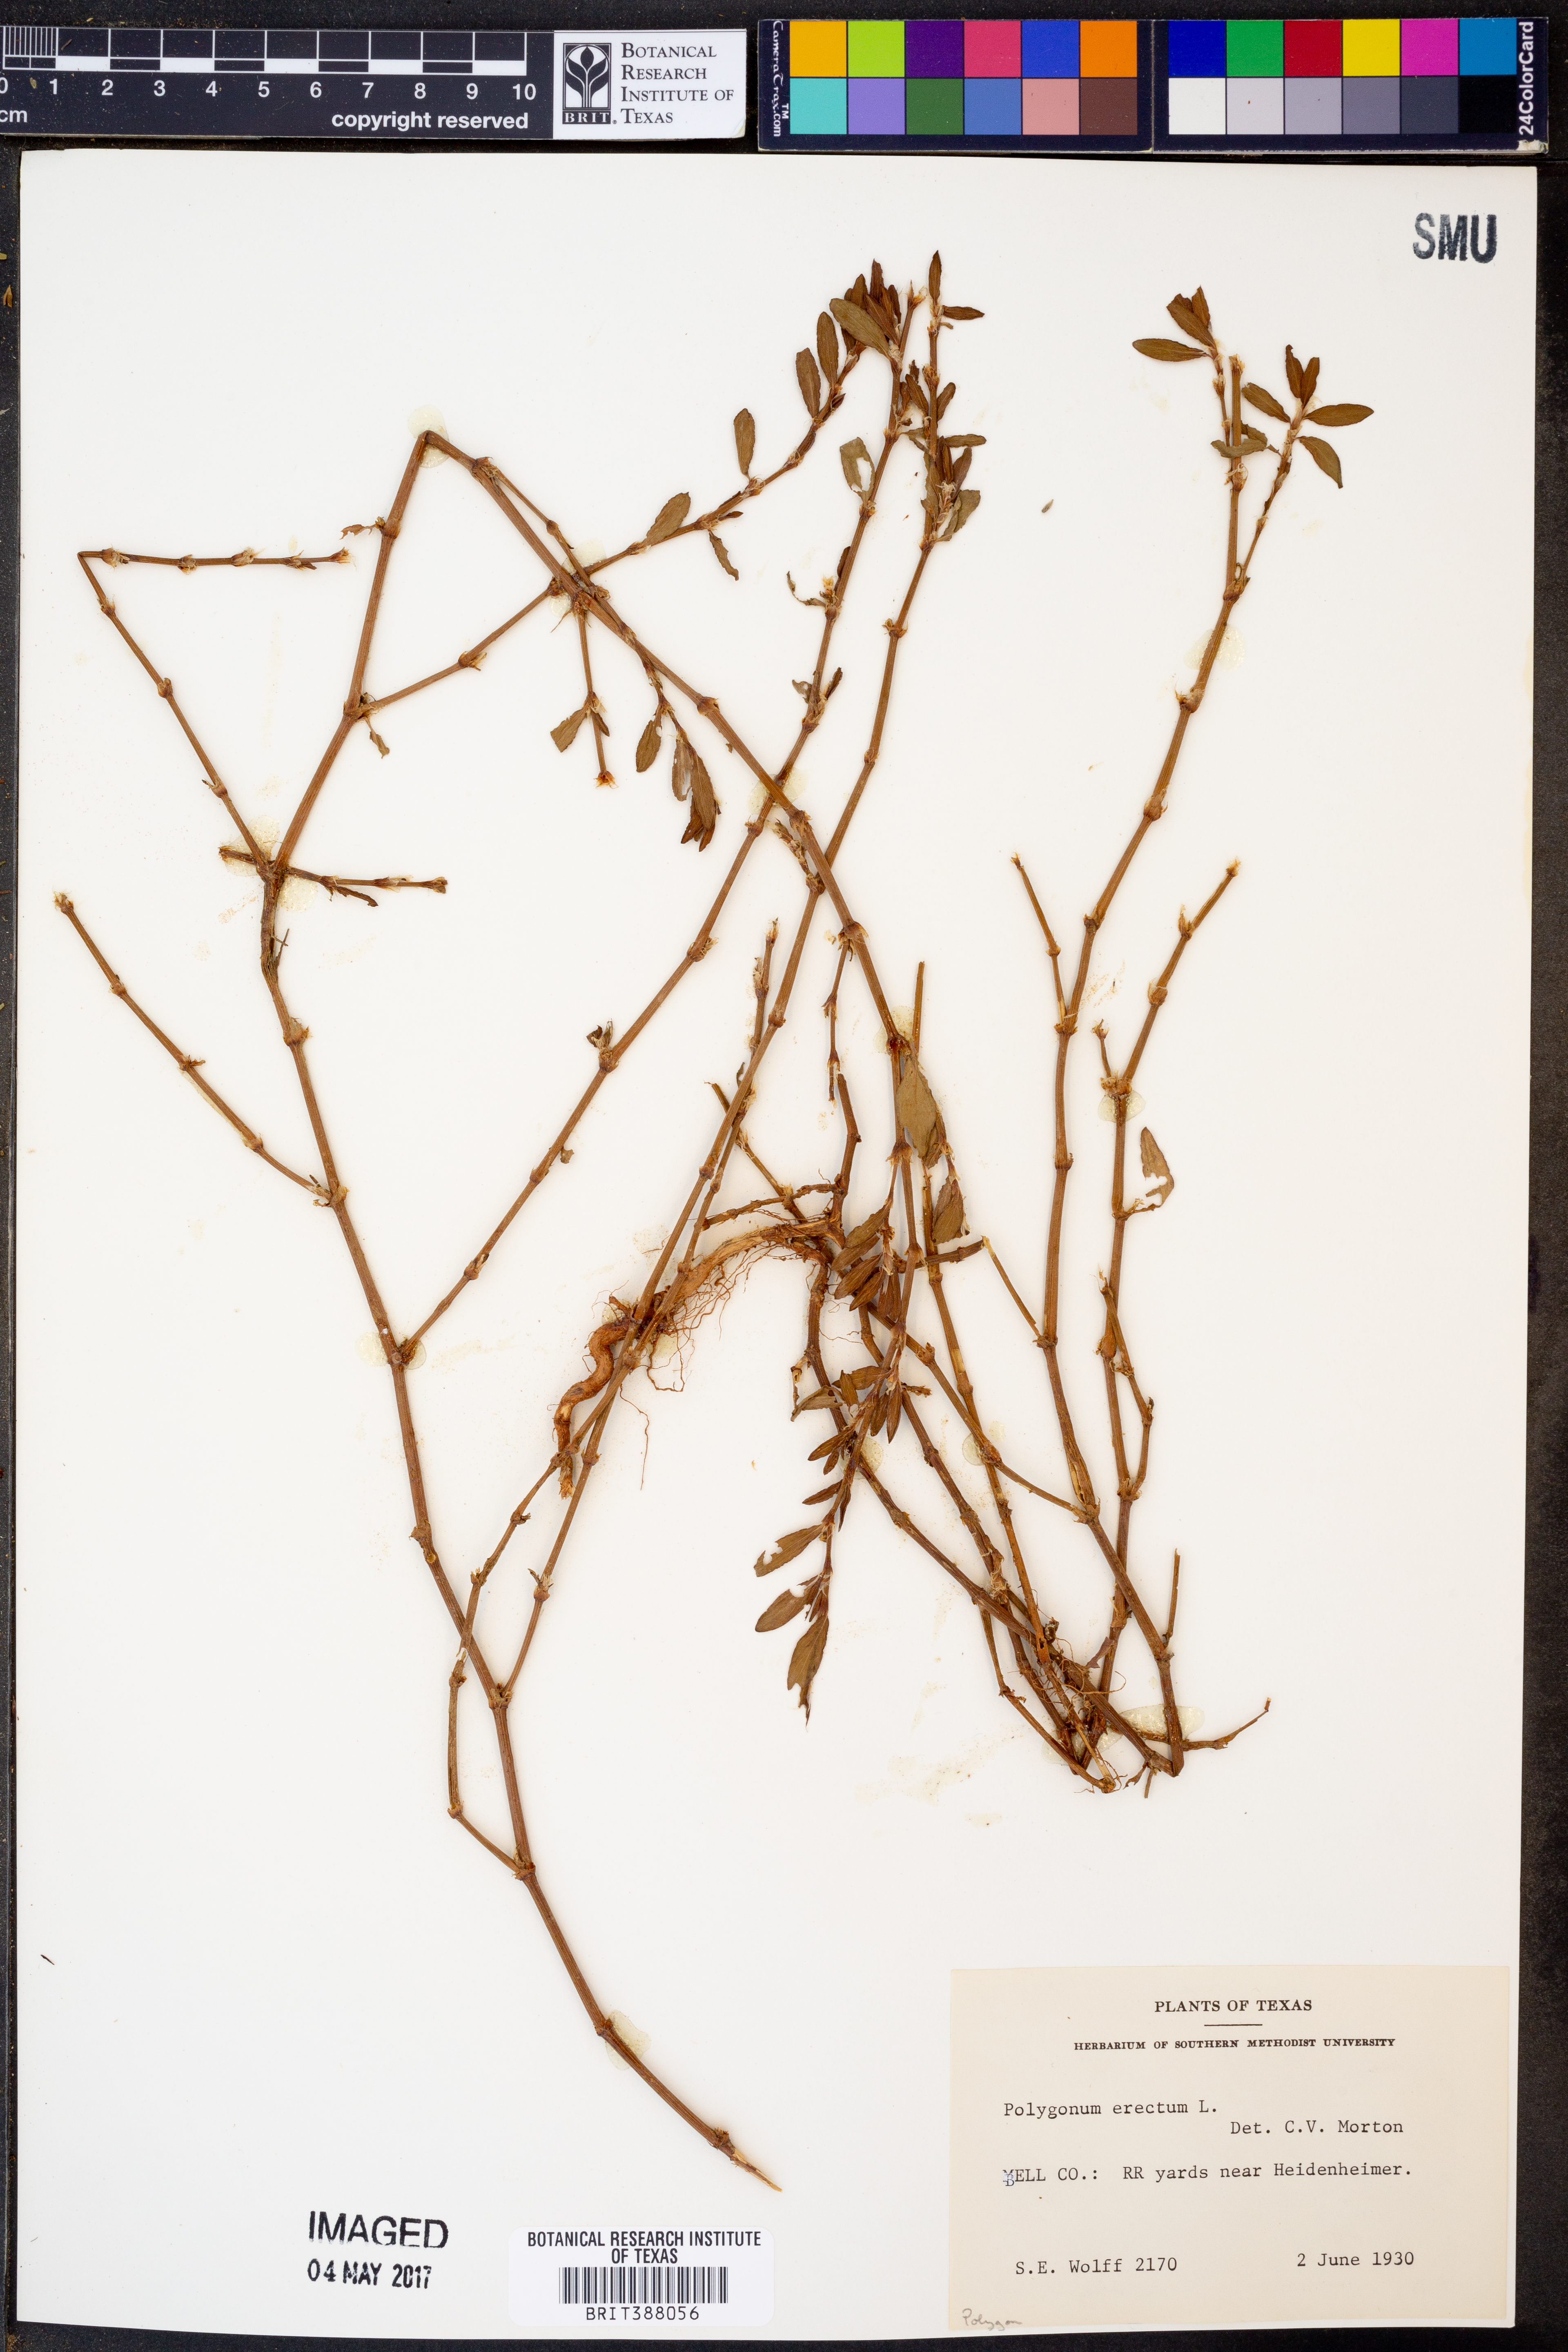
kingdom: Plantae
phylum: Tracheophyta
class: Magnoliopsida
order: Caryophyllales
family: Polygonaceae
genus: Polygonum
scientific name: Polygonum erectum
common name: Erect knotweed
